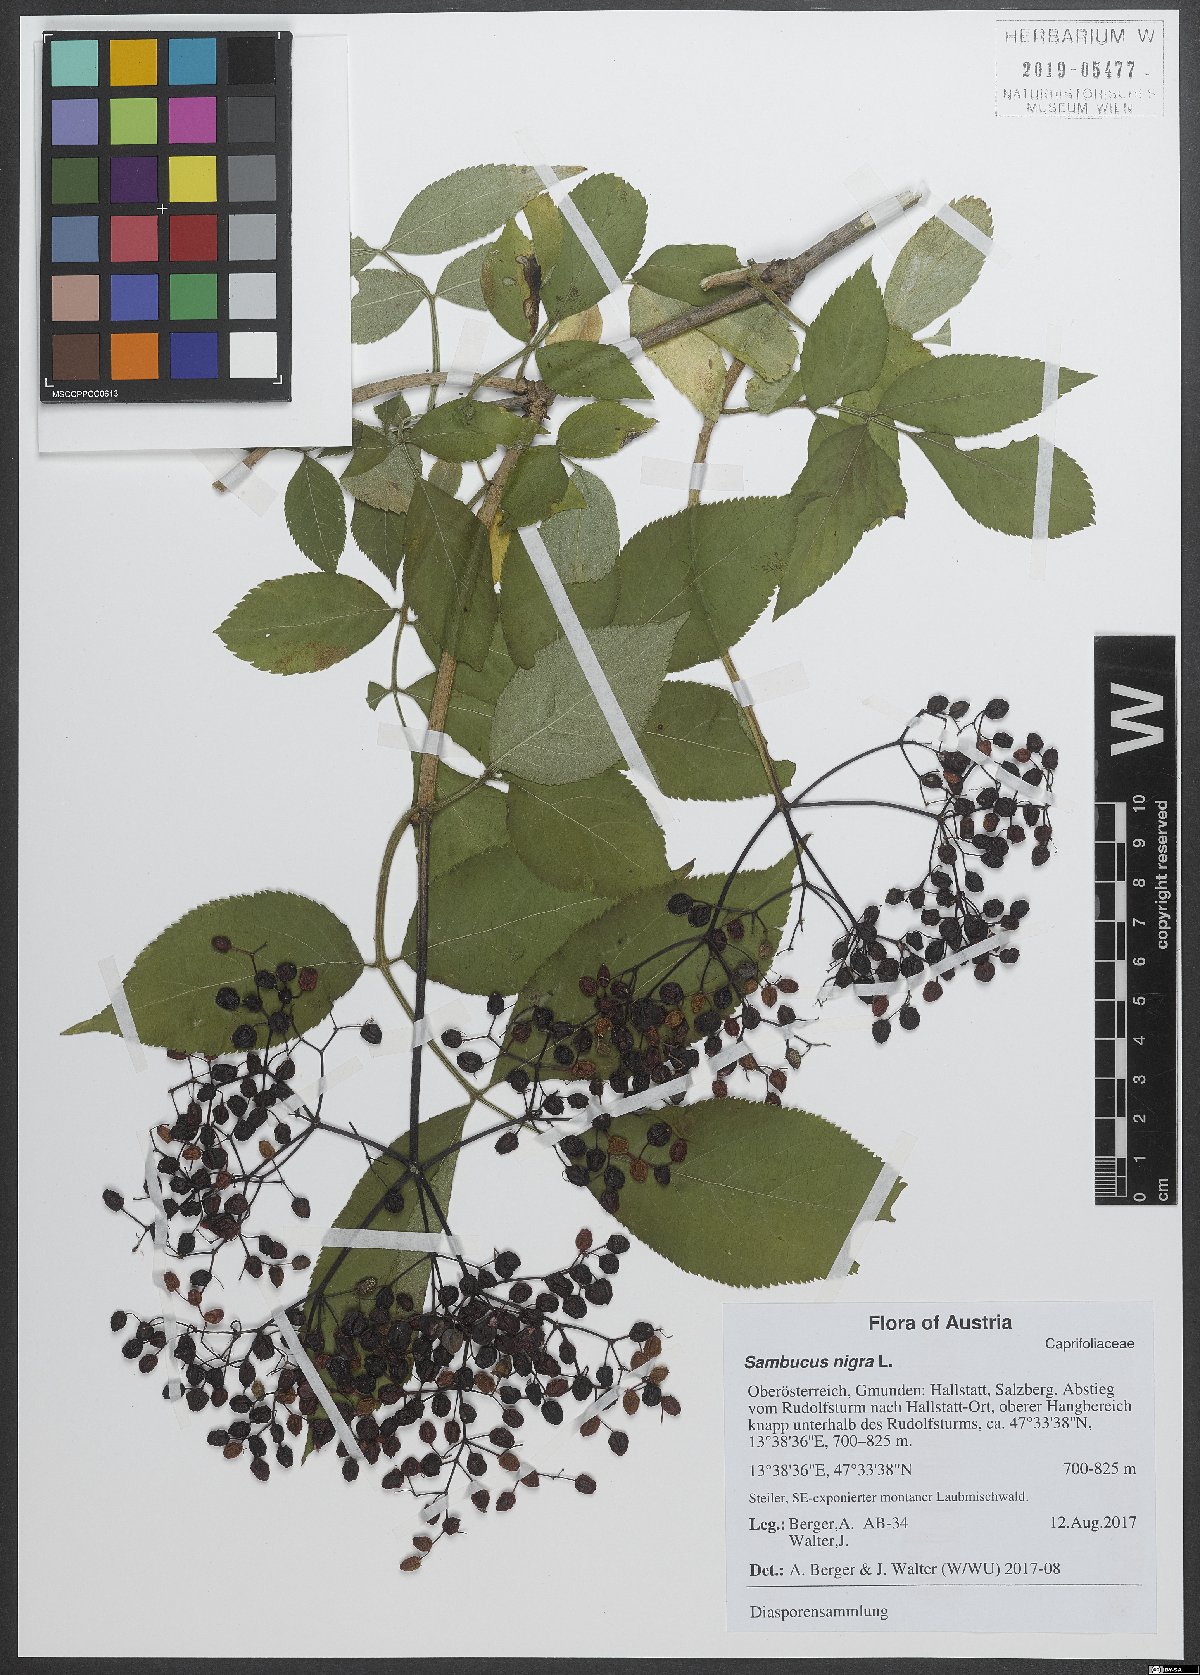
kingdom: Plantae
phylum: Tracheophyta
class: Magnoliopsida
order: Dipsacales
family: Viburnaceae
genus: Sambucus
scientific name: Sambucus nigra
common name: Elder
